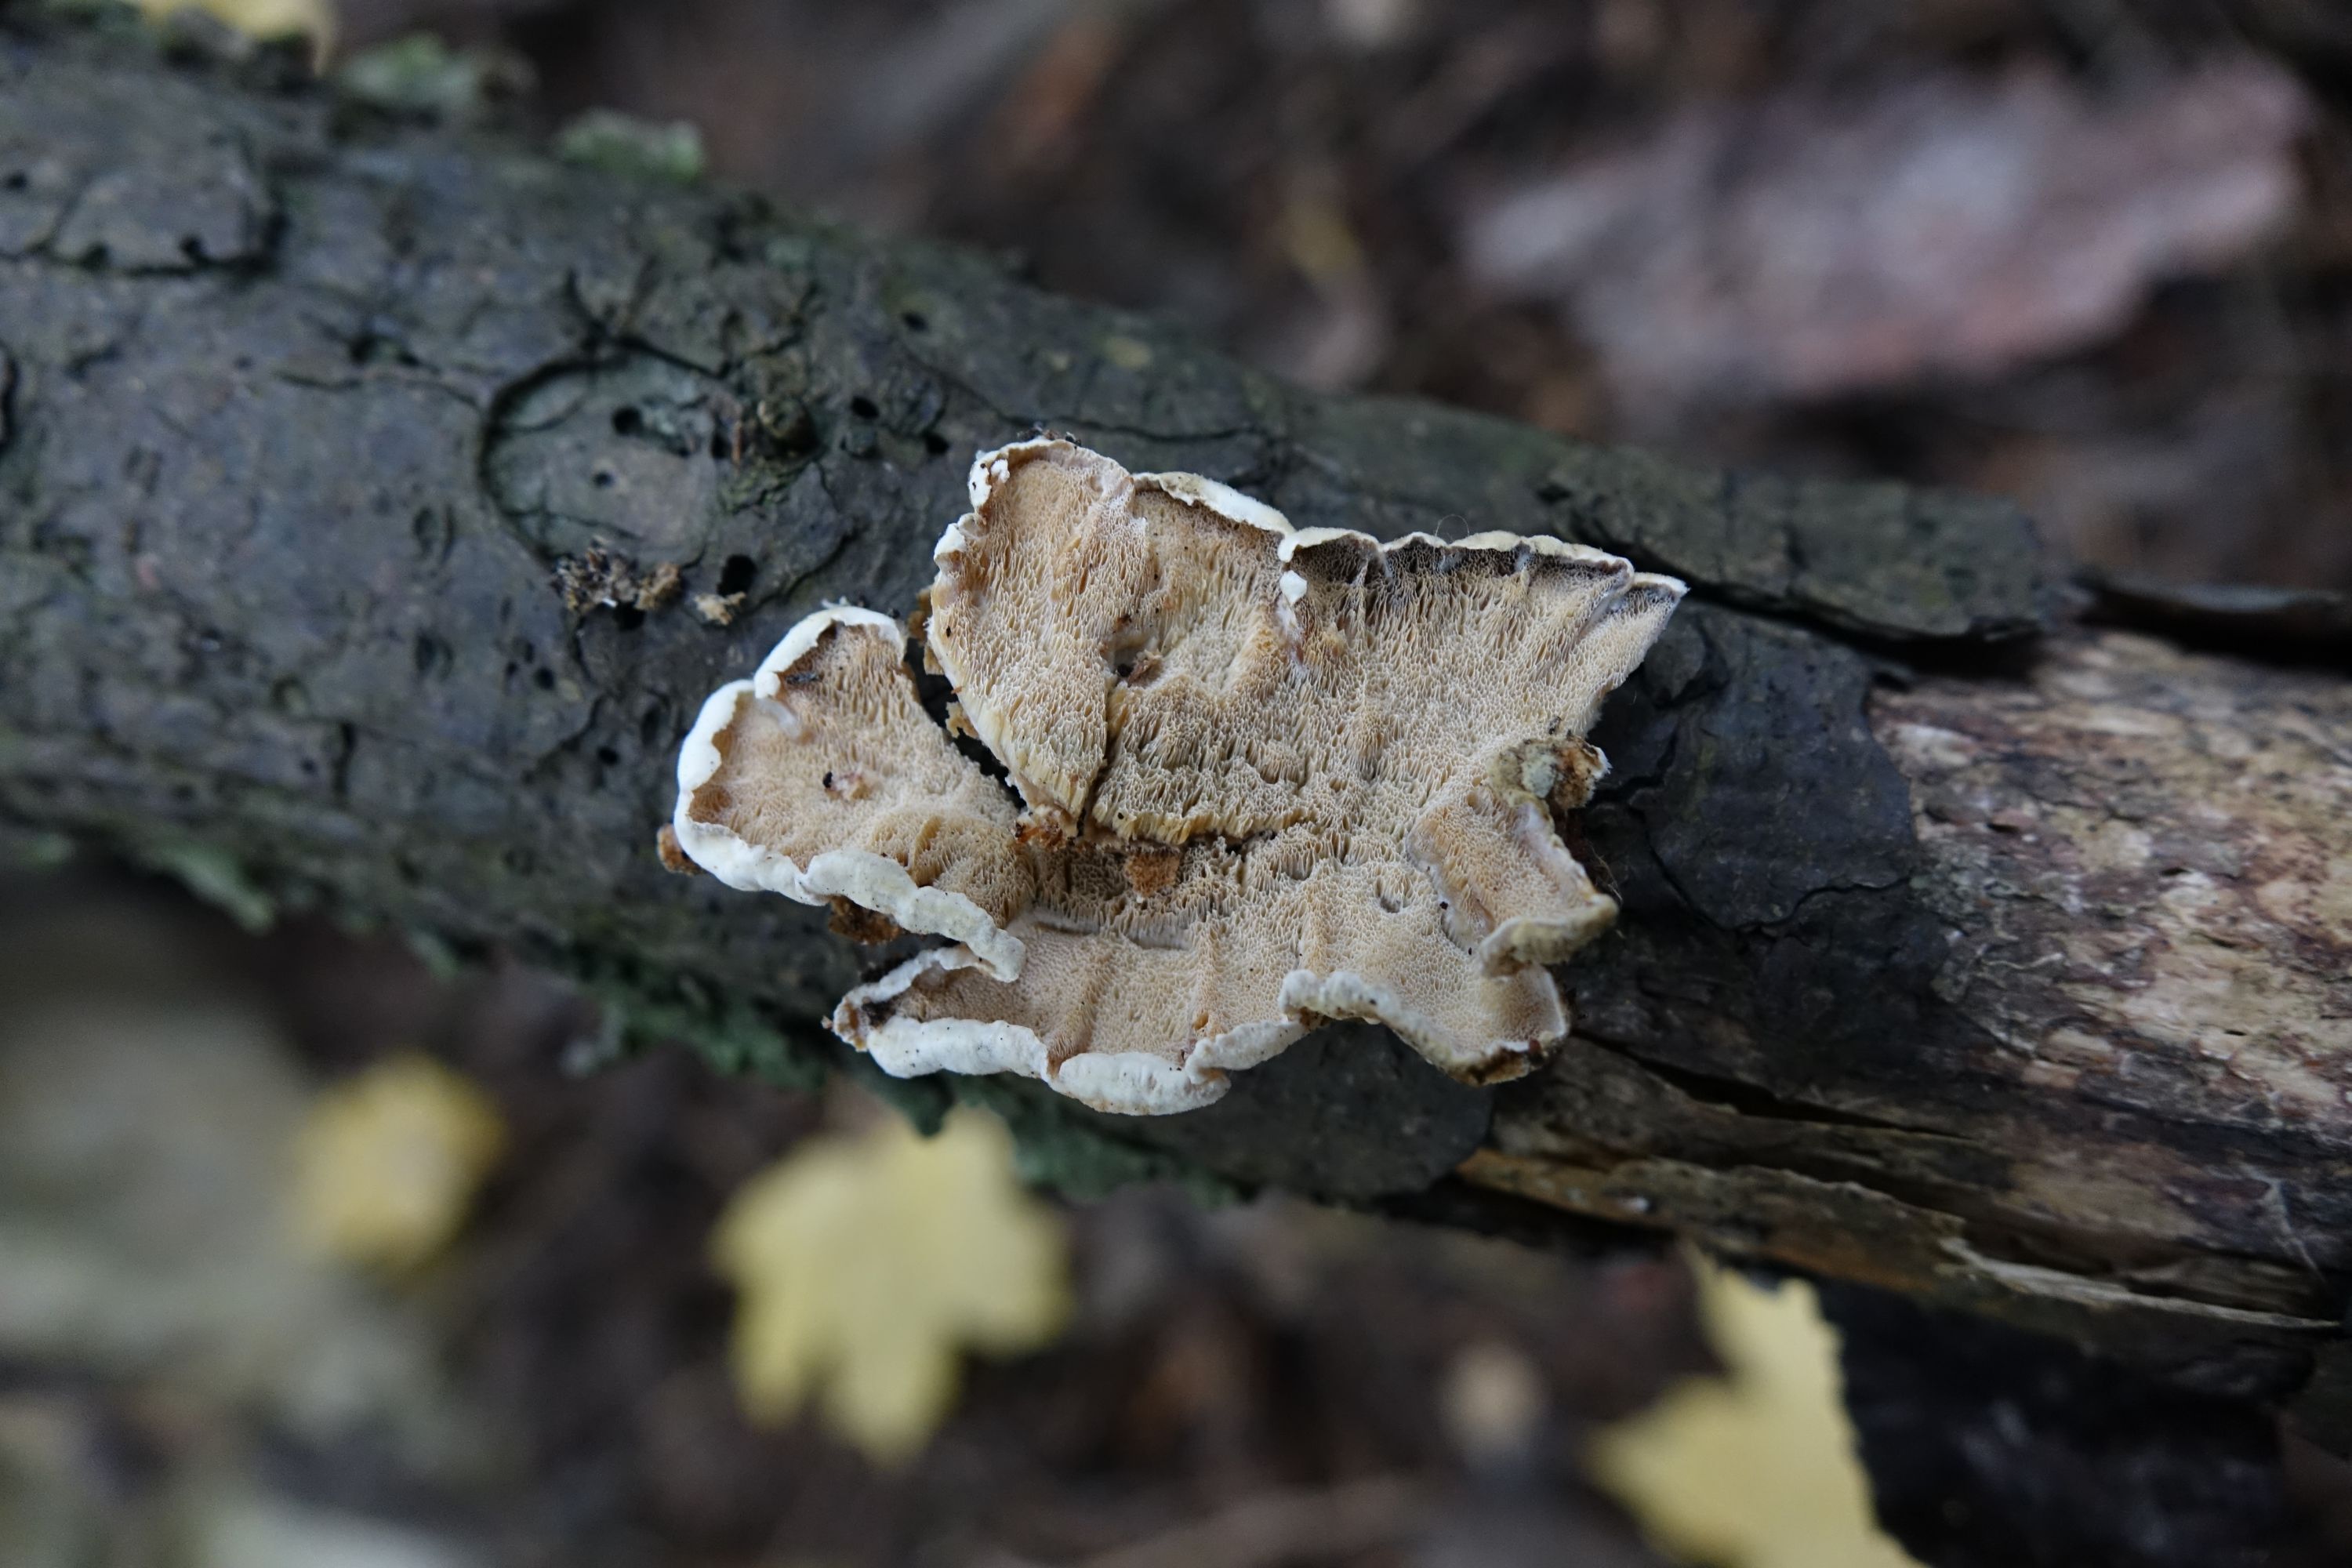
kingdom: Fungi
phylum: Basidiomycota
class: Agaricomycetes
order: Polyporales
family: Incrustoporiaceae
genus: Skeletocutis
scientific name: Skeletocutis carneogrisea
